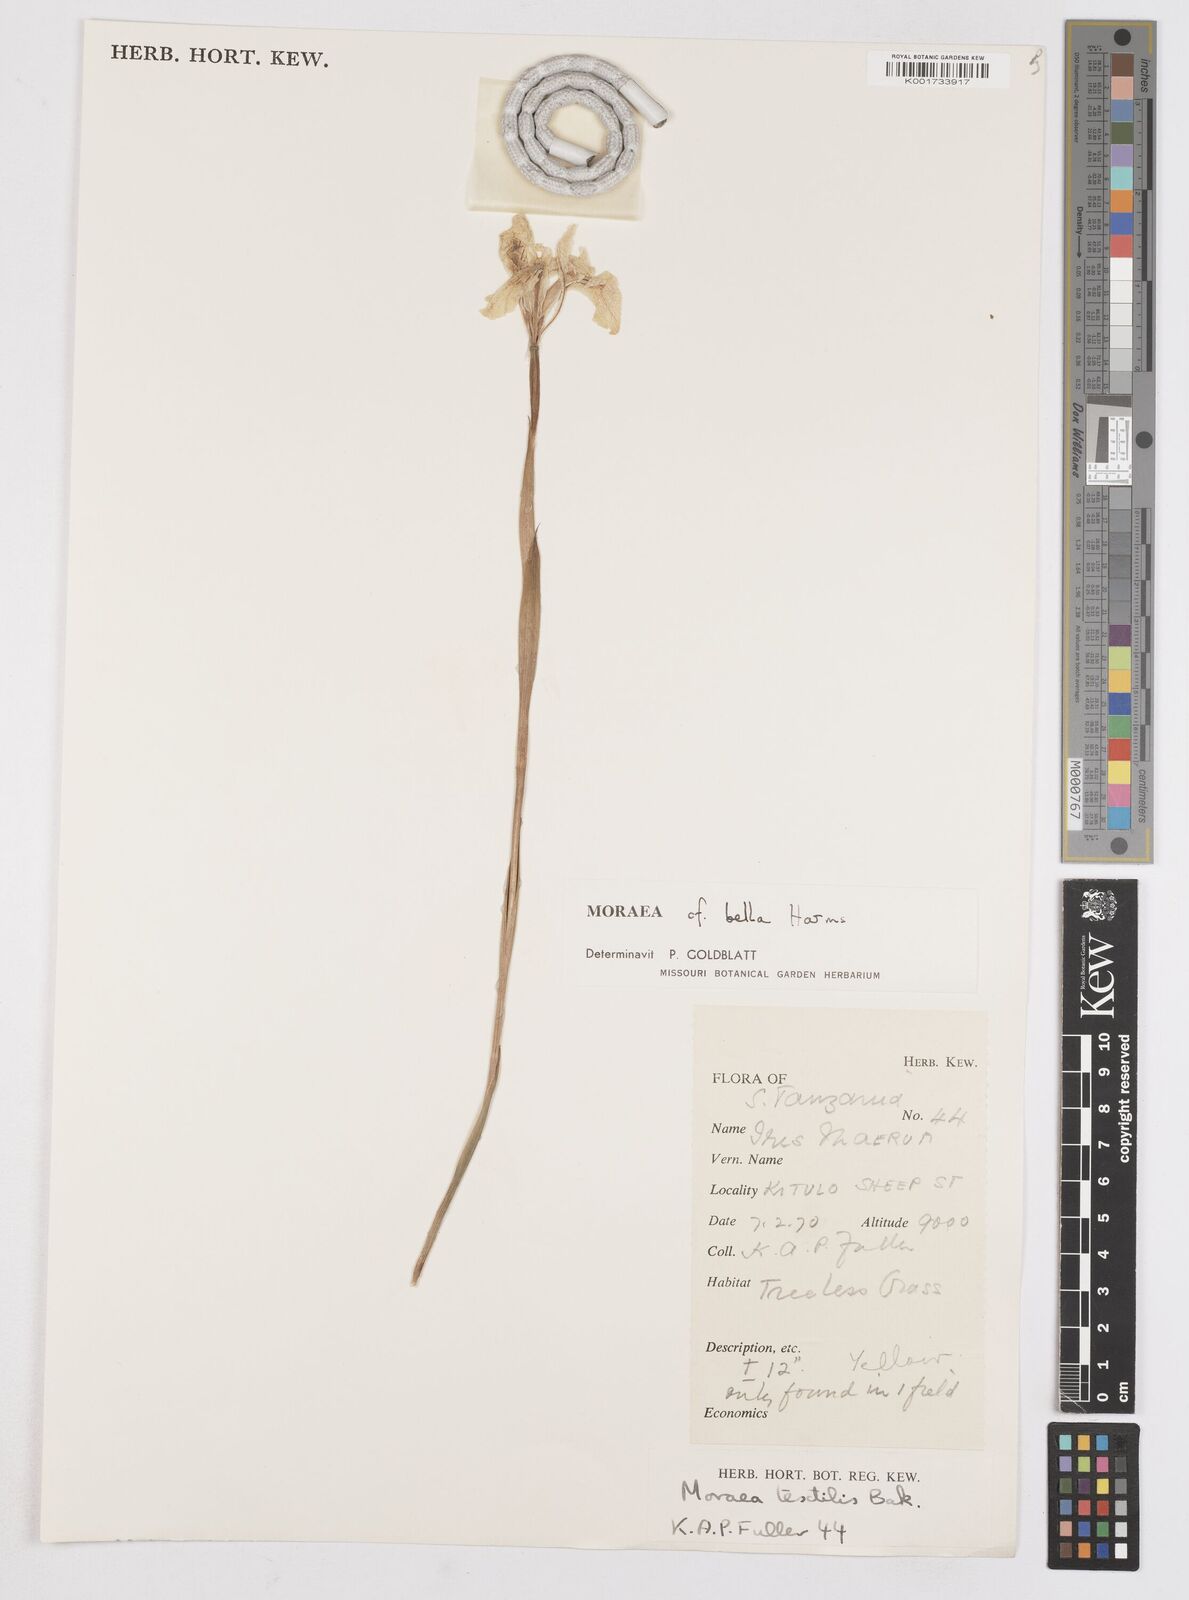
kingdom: Plantae
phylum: Tracheophyta
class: Liliopsida
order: Asparagales
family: Iridaceae
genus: Moraea
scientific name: Moraea bella
